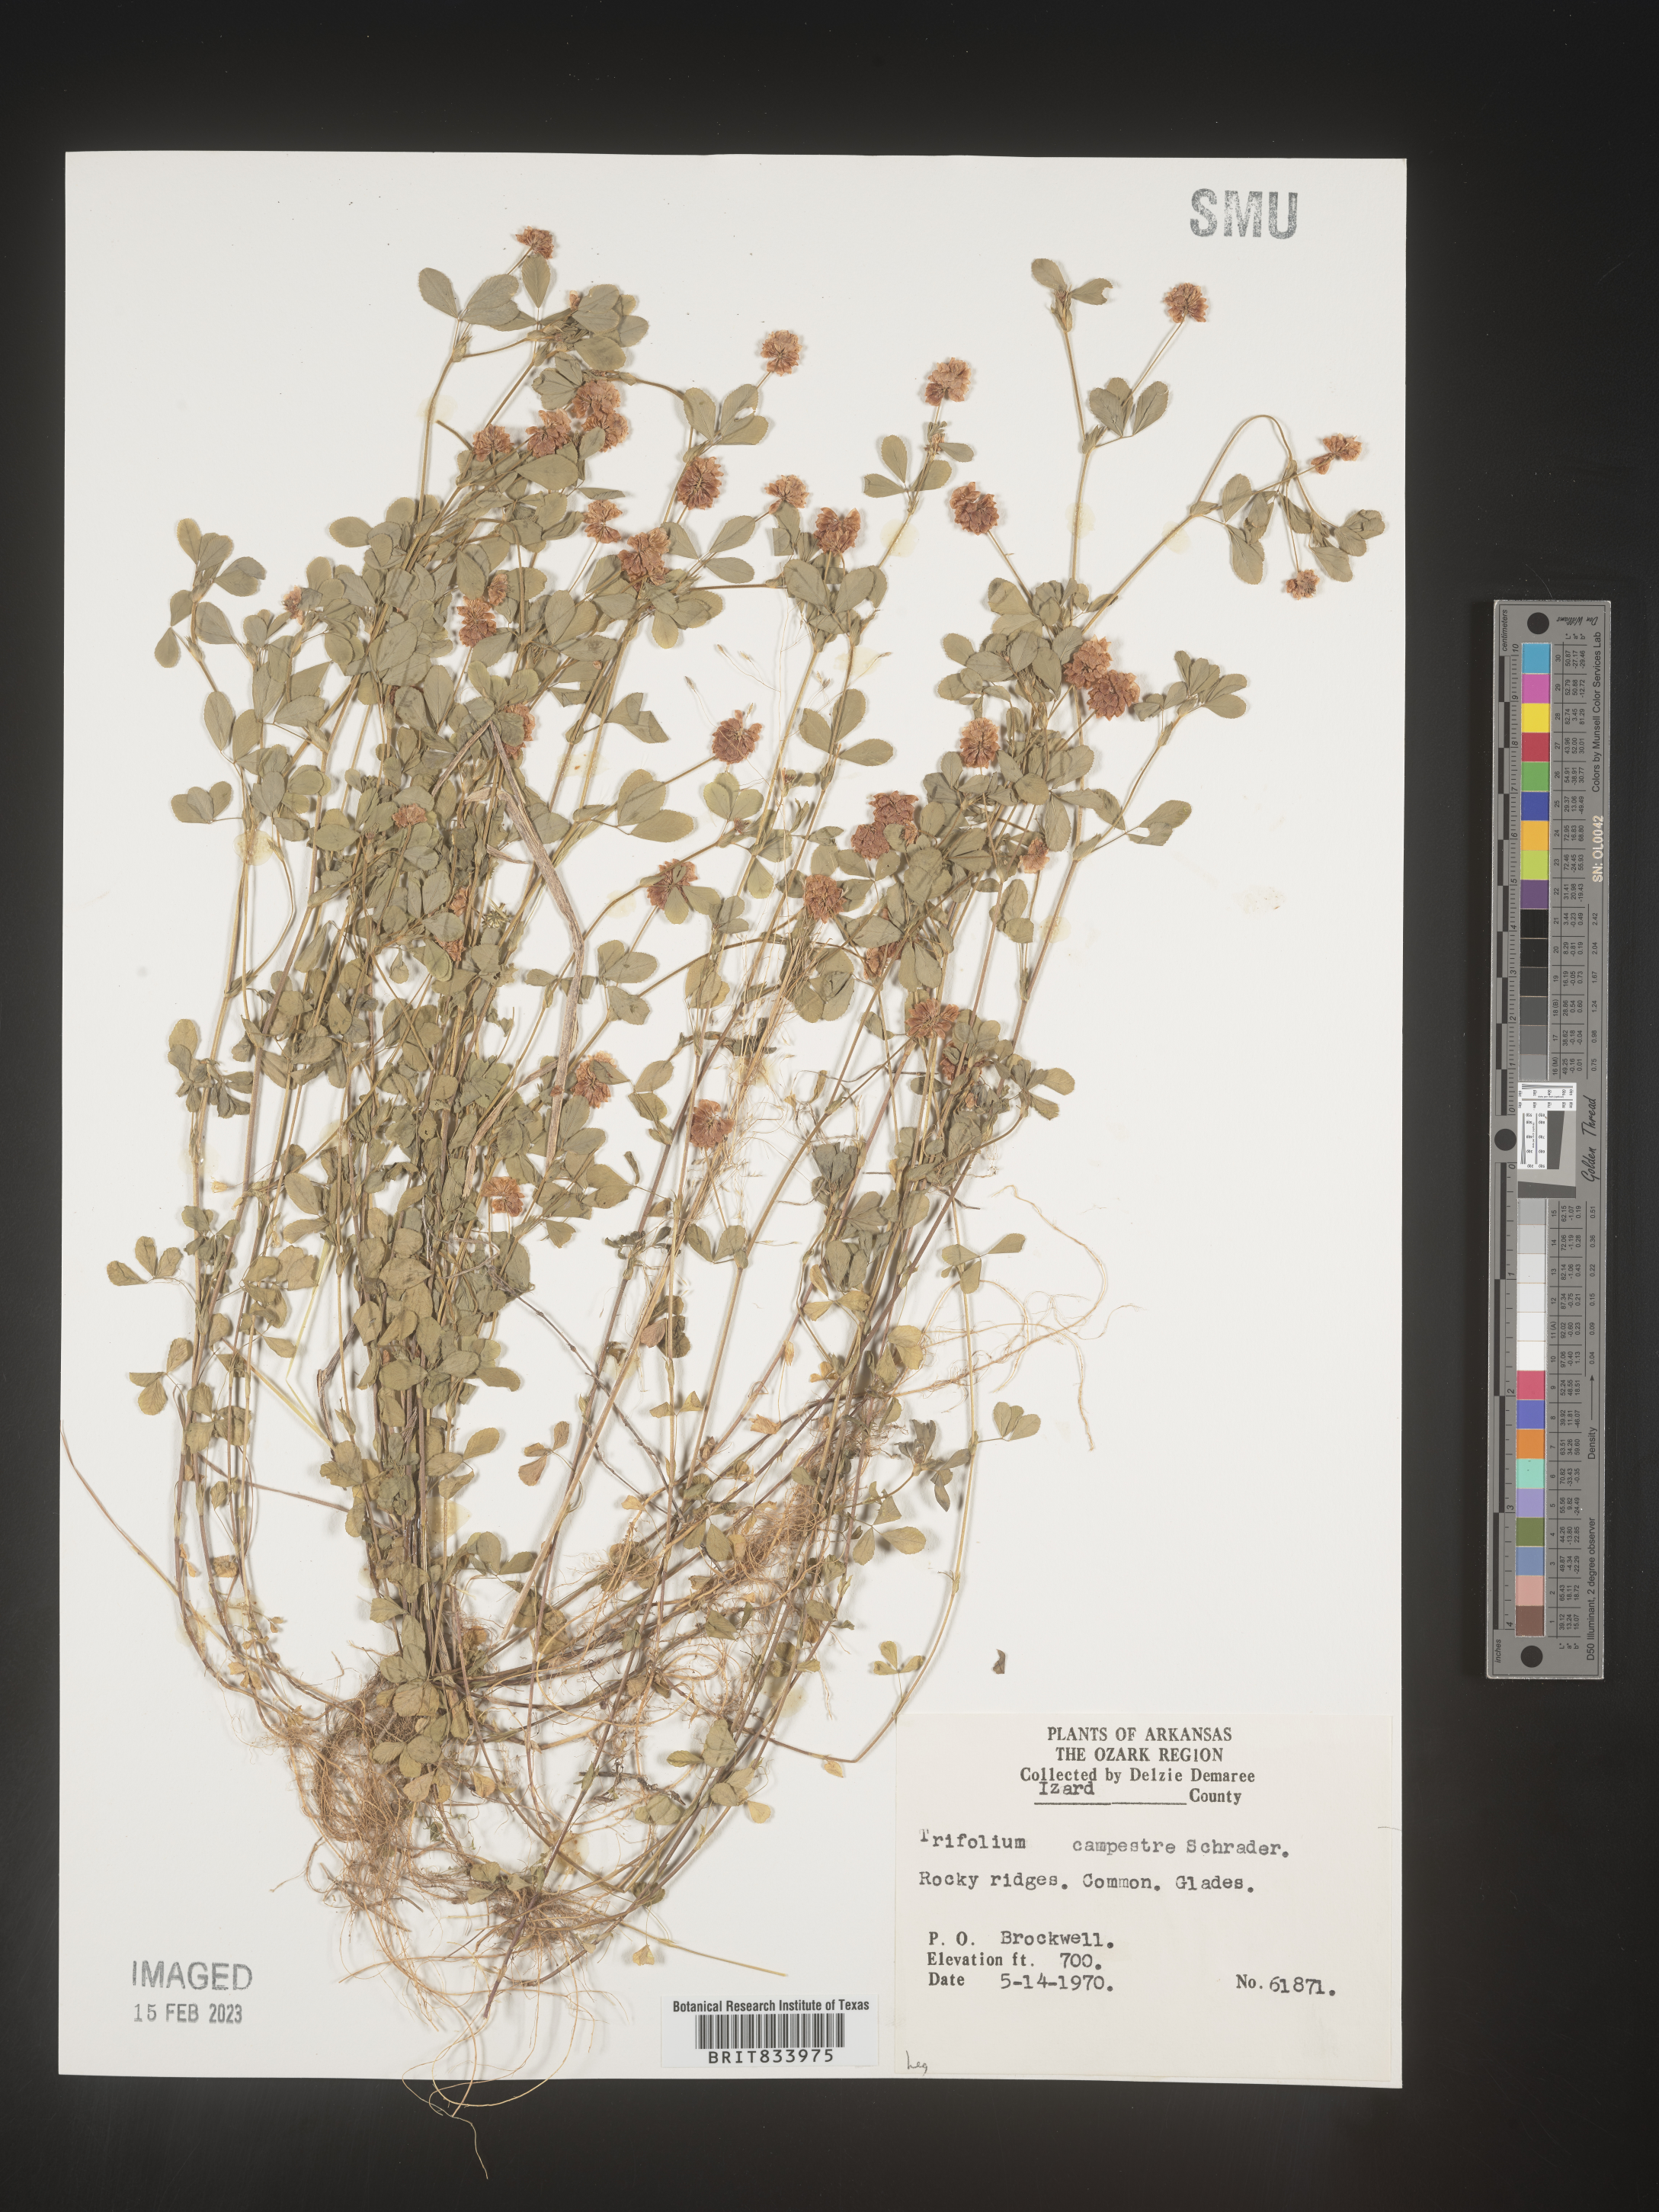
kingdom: Plantae
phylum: Tracheophyta
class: Magnoliopsida
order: Fabales
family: Fabaceae
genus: Trifolium
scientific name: Trifolium campestre
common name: Field clover
